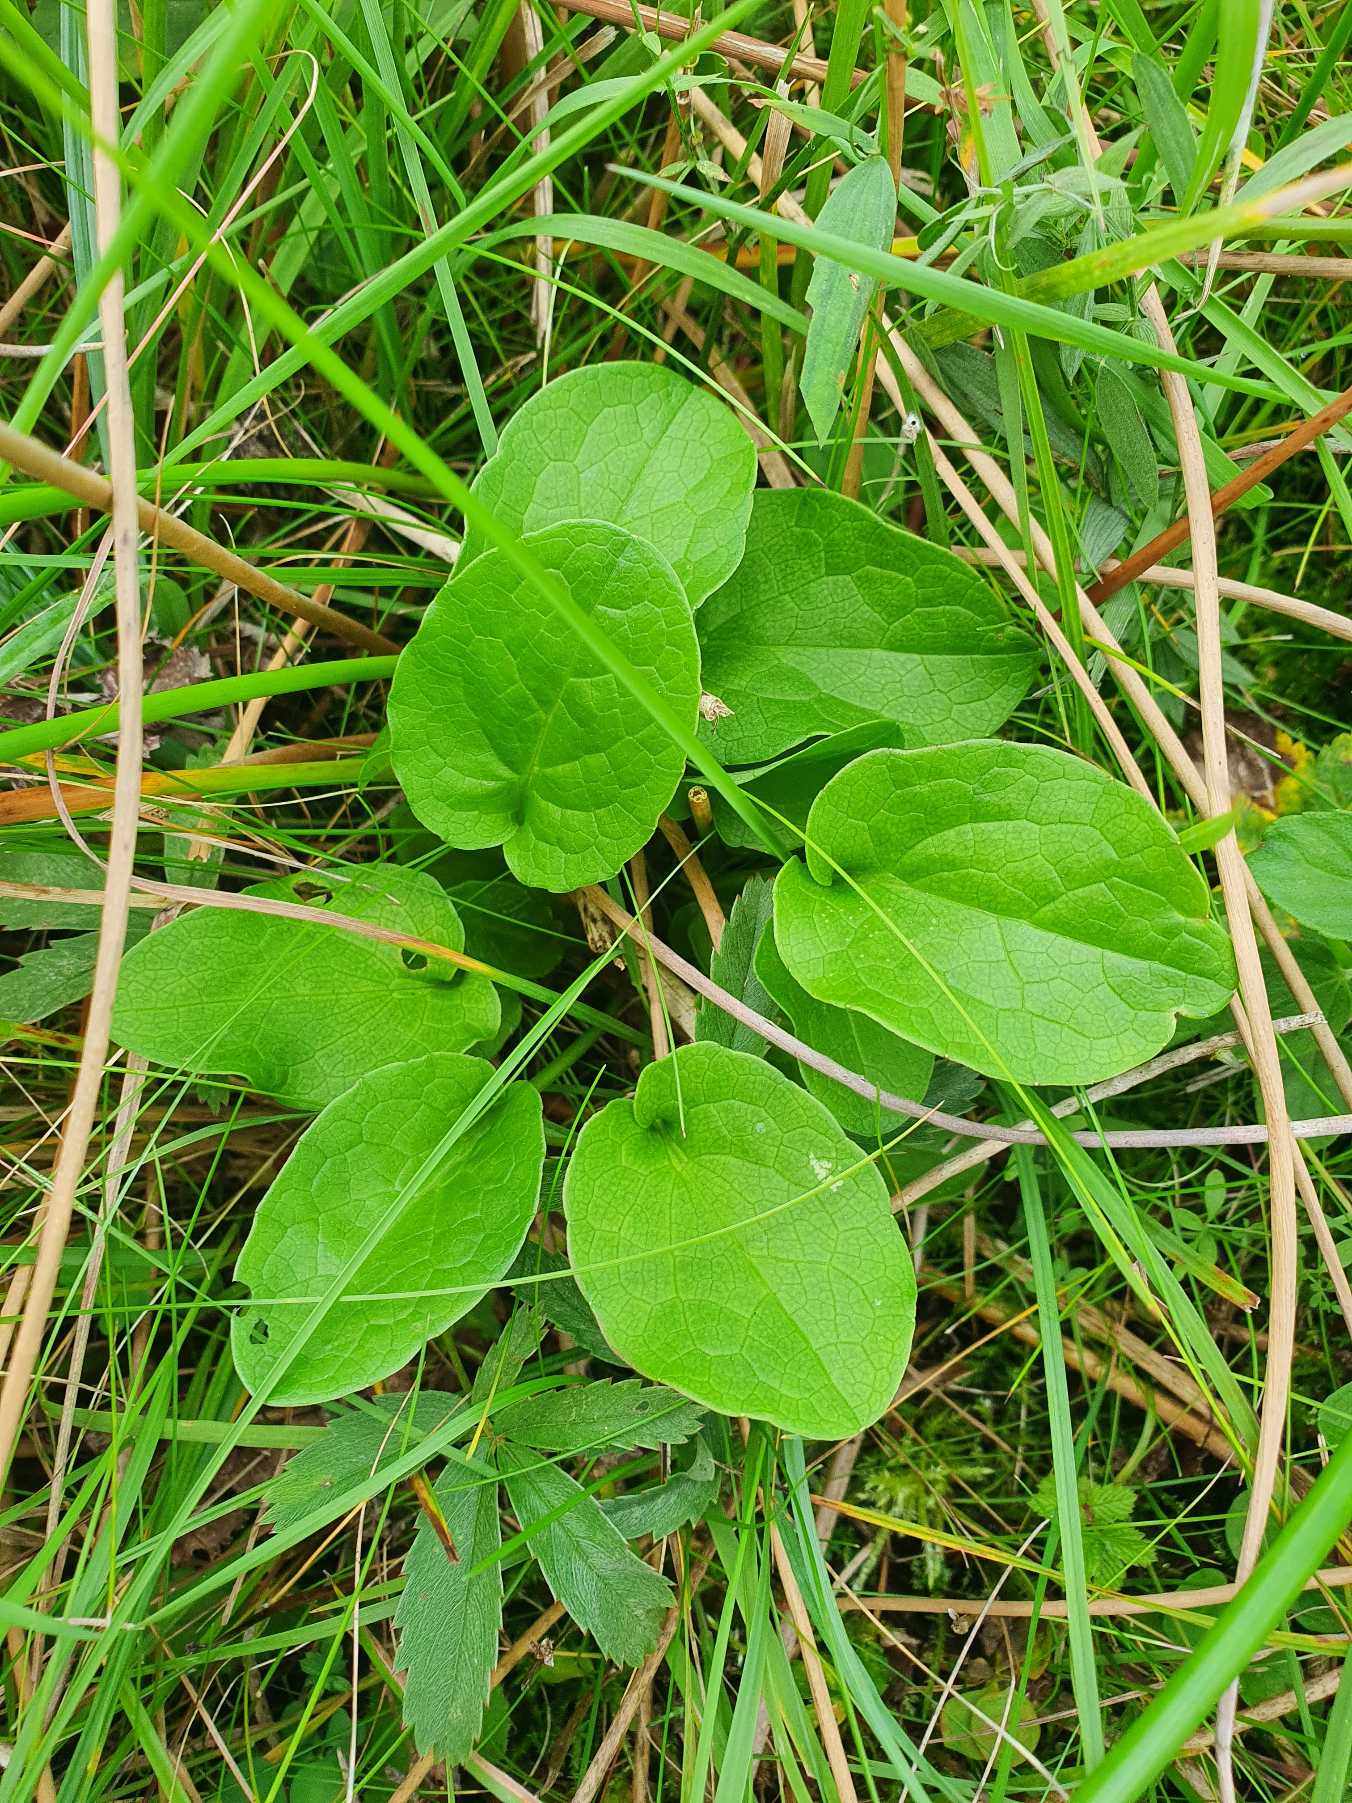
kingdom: Plantae
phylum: Tracheophyta
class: Magnoliopsida
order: Dipsacales
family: Caprifoliaceae
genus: Valeriana
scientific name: Valeriana dioica
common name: Tvebo baldrian
